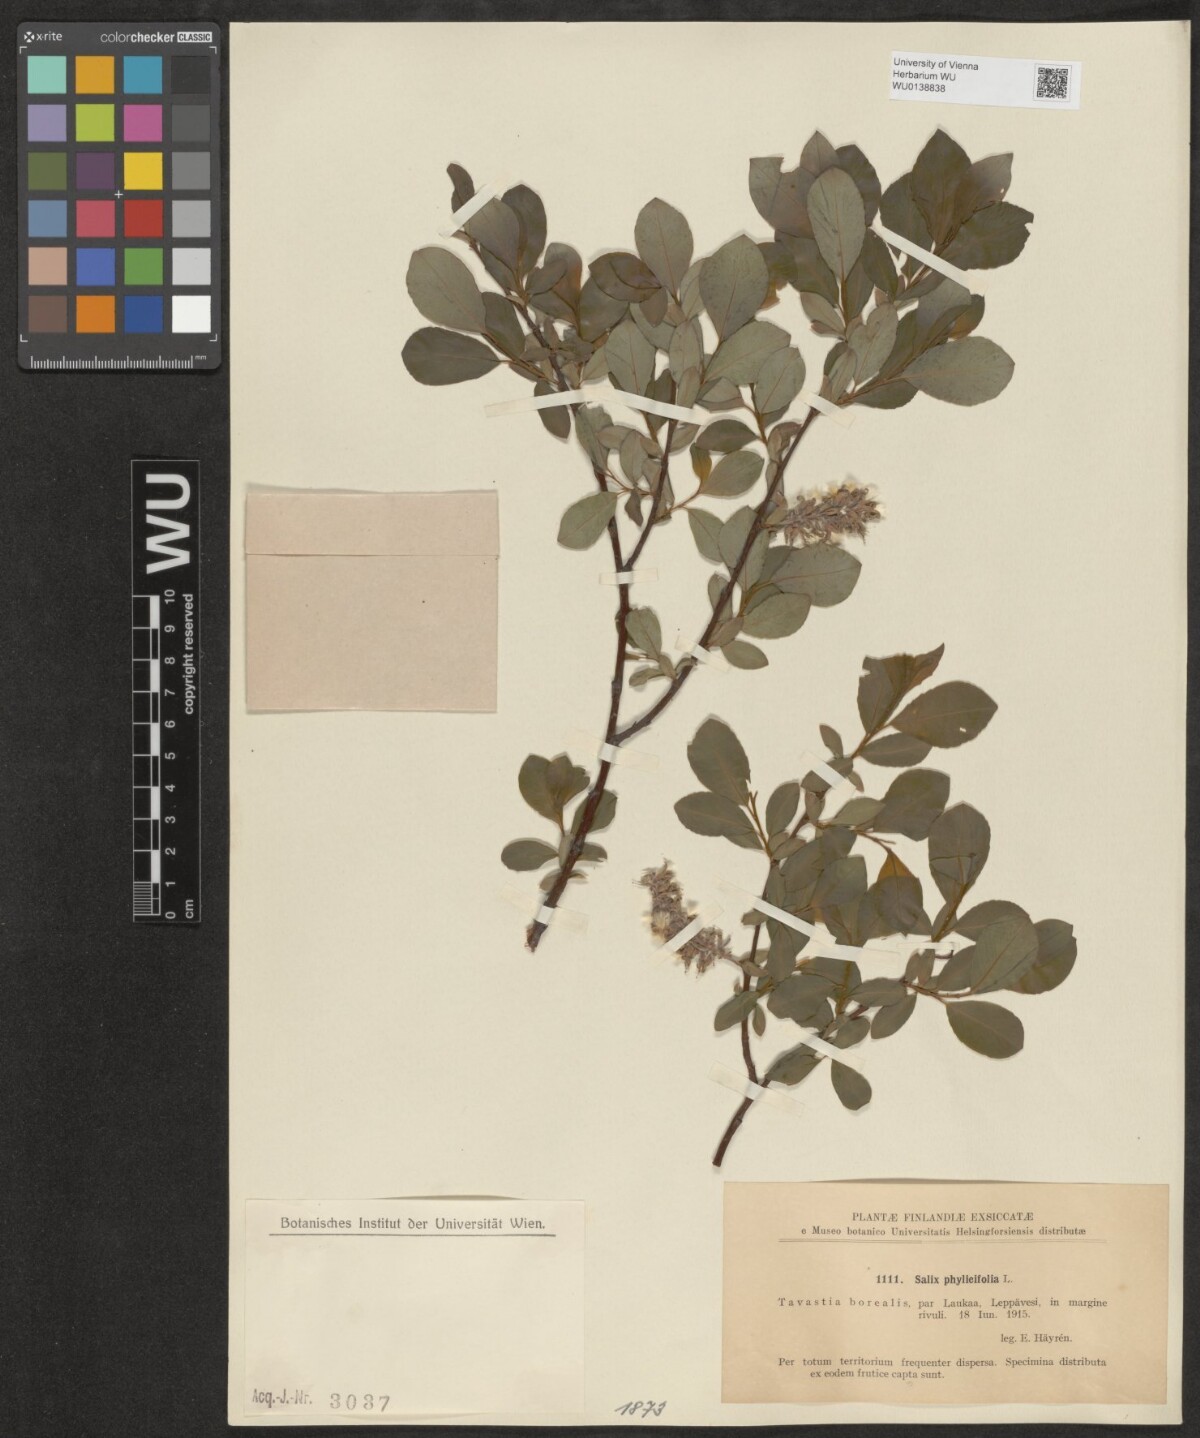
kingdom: Plantae
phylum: Tracheophyta
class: Magnoliopsida
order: Malpighiales
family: Salicaceae
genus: Salix
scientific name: Salix phylicifolia
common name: Tea-leaved willow
